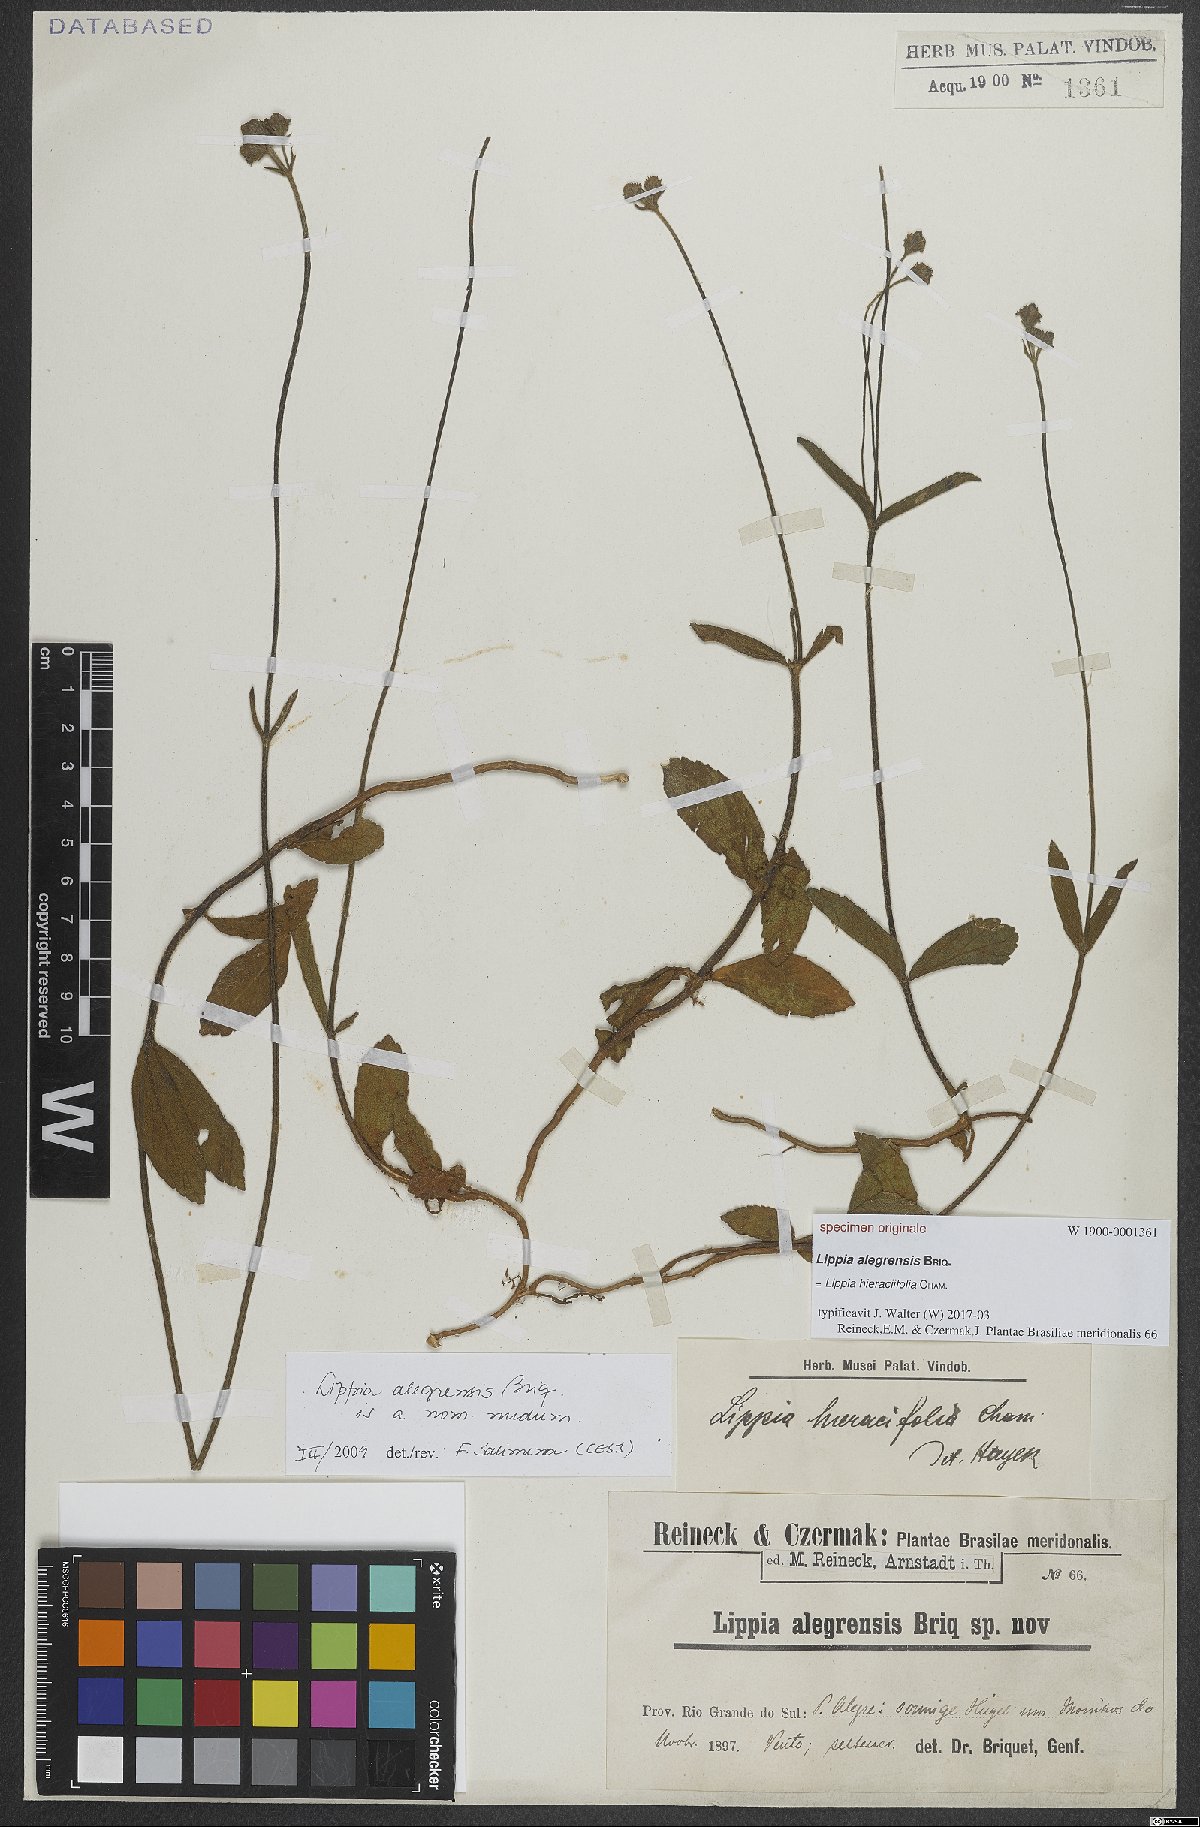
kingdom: Plantae
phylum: Tracheophyta
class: Magnoliopsida
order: Lamiales
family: Verbenaceae
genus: Lippia
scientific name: Lippia hieraciifolia
